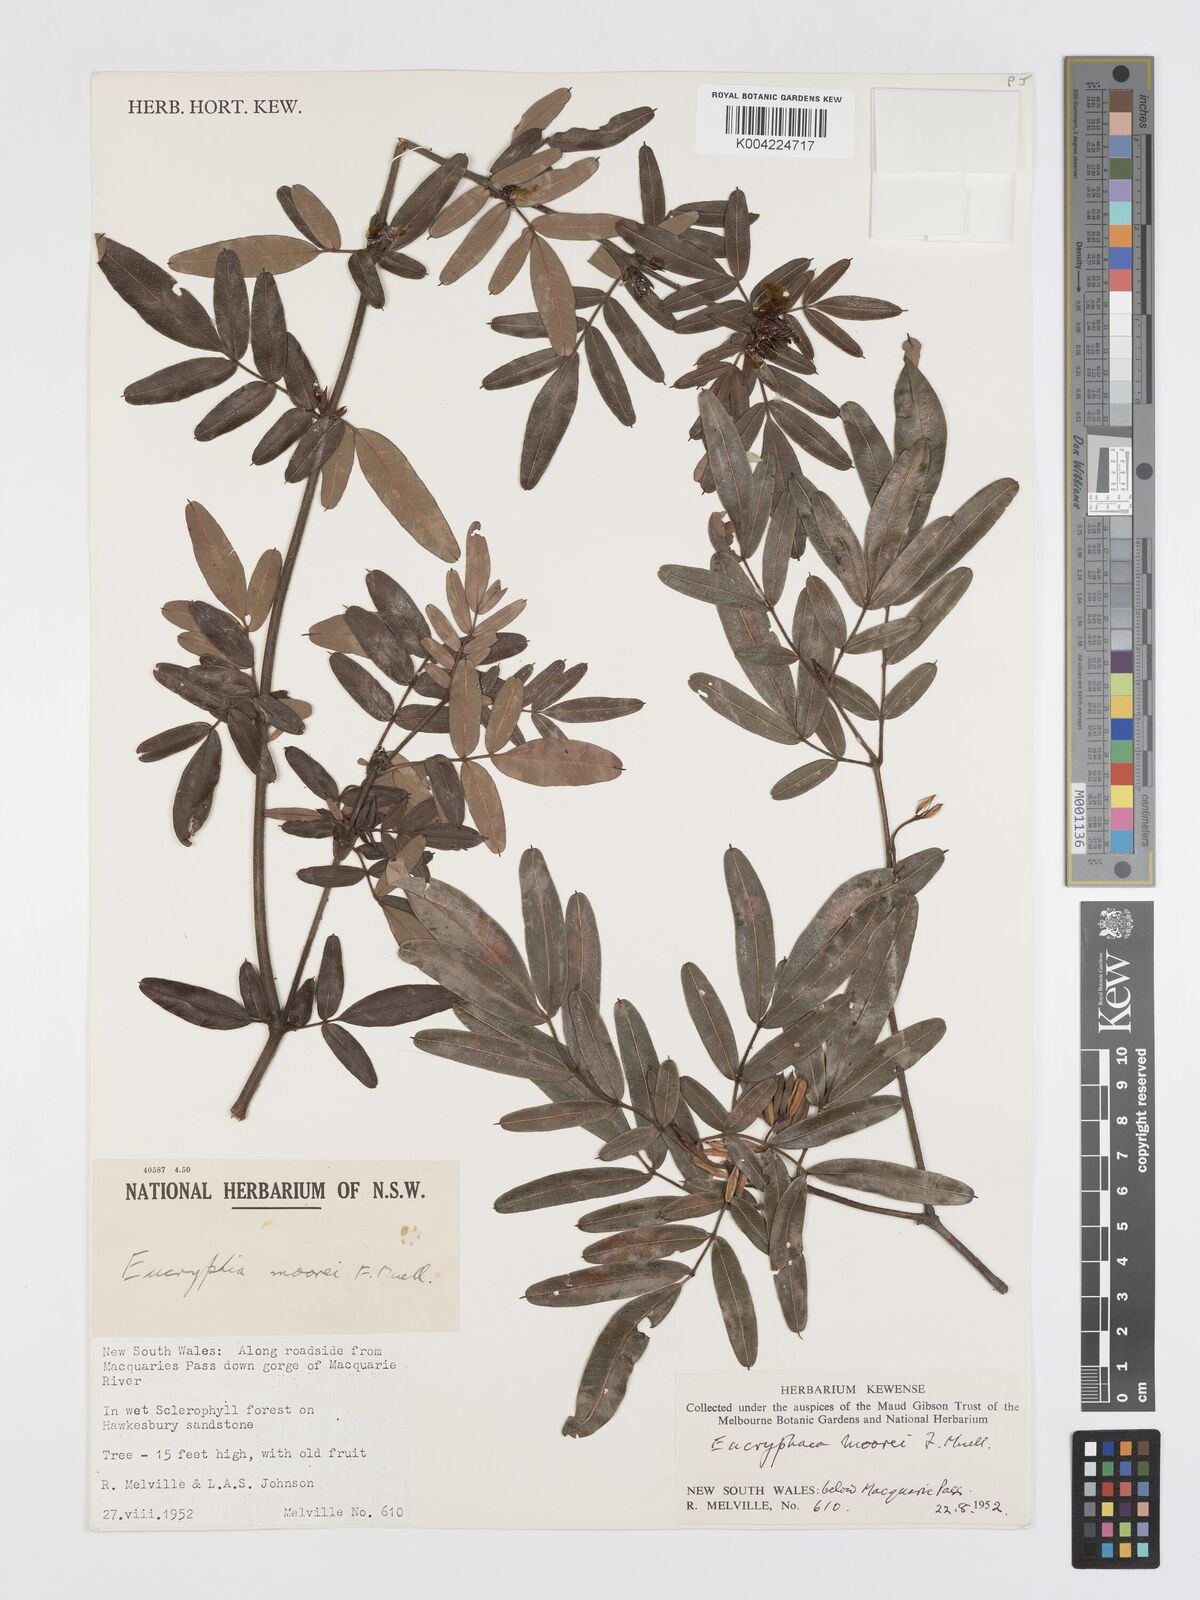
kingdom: Plantae
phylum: Tracheophyta
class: Magnoliopsida
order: Oxalidales
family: Cunoniaceae
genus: Eucryphia
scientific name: Eucryphia moorei
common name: Acacia-plum
